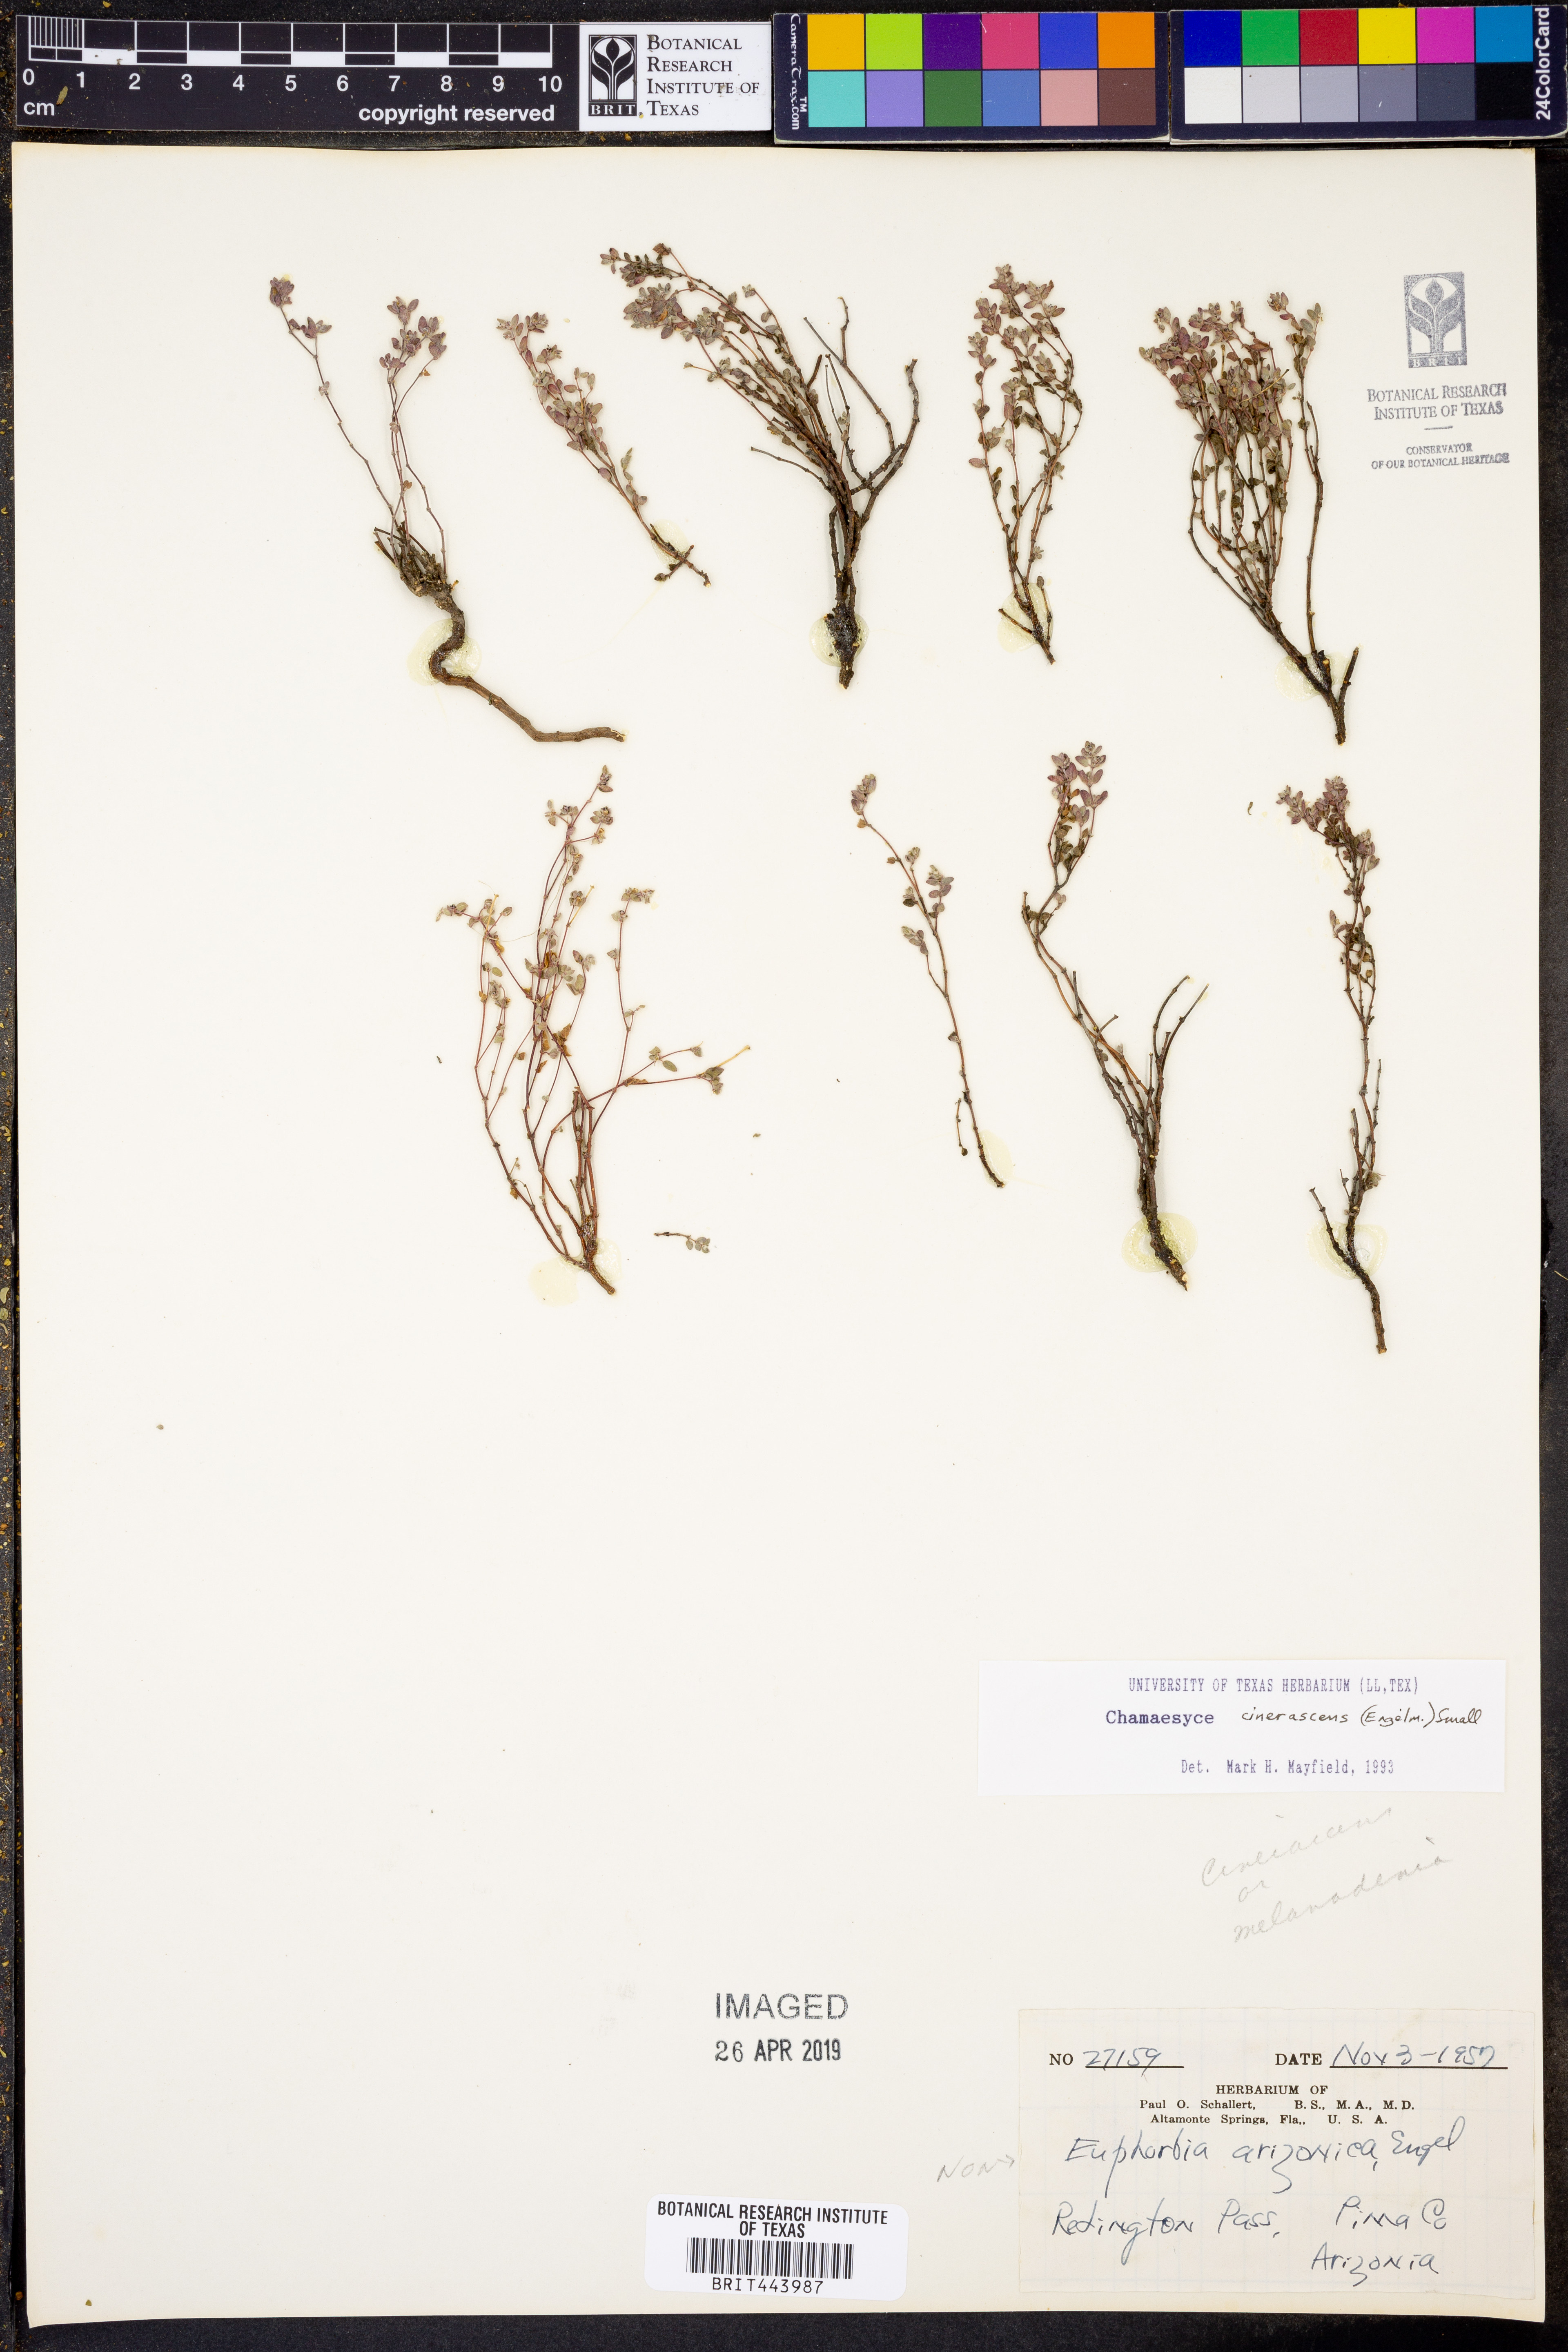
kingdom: Plantae
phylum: Tracheophyta
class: Magnoliopsida
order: Malpighiales
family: Euphorbiaceae
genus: Euphorbia
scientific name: Euphorbia cinerascens
